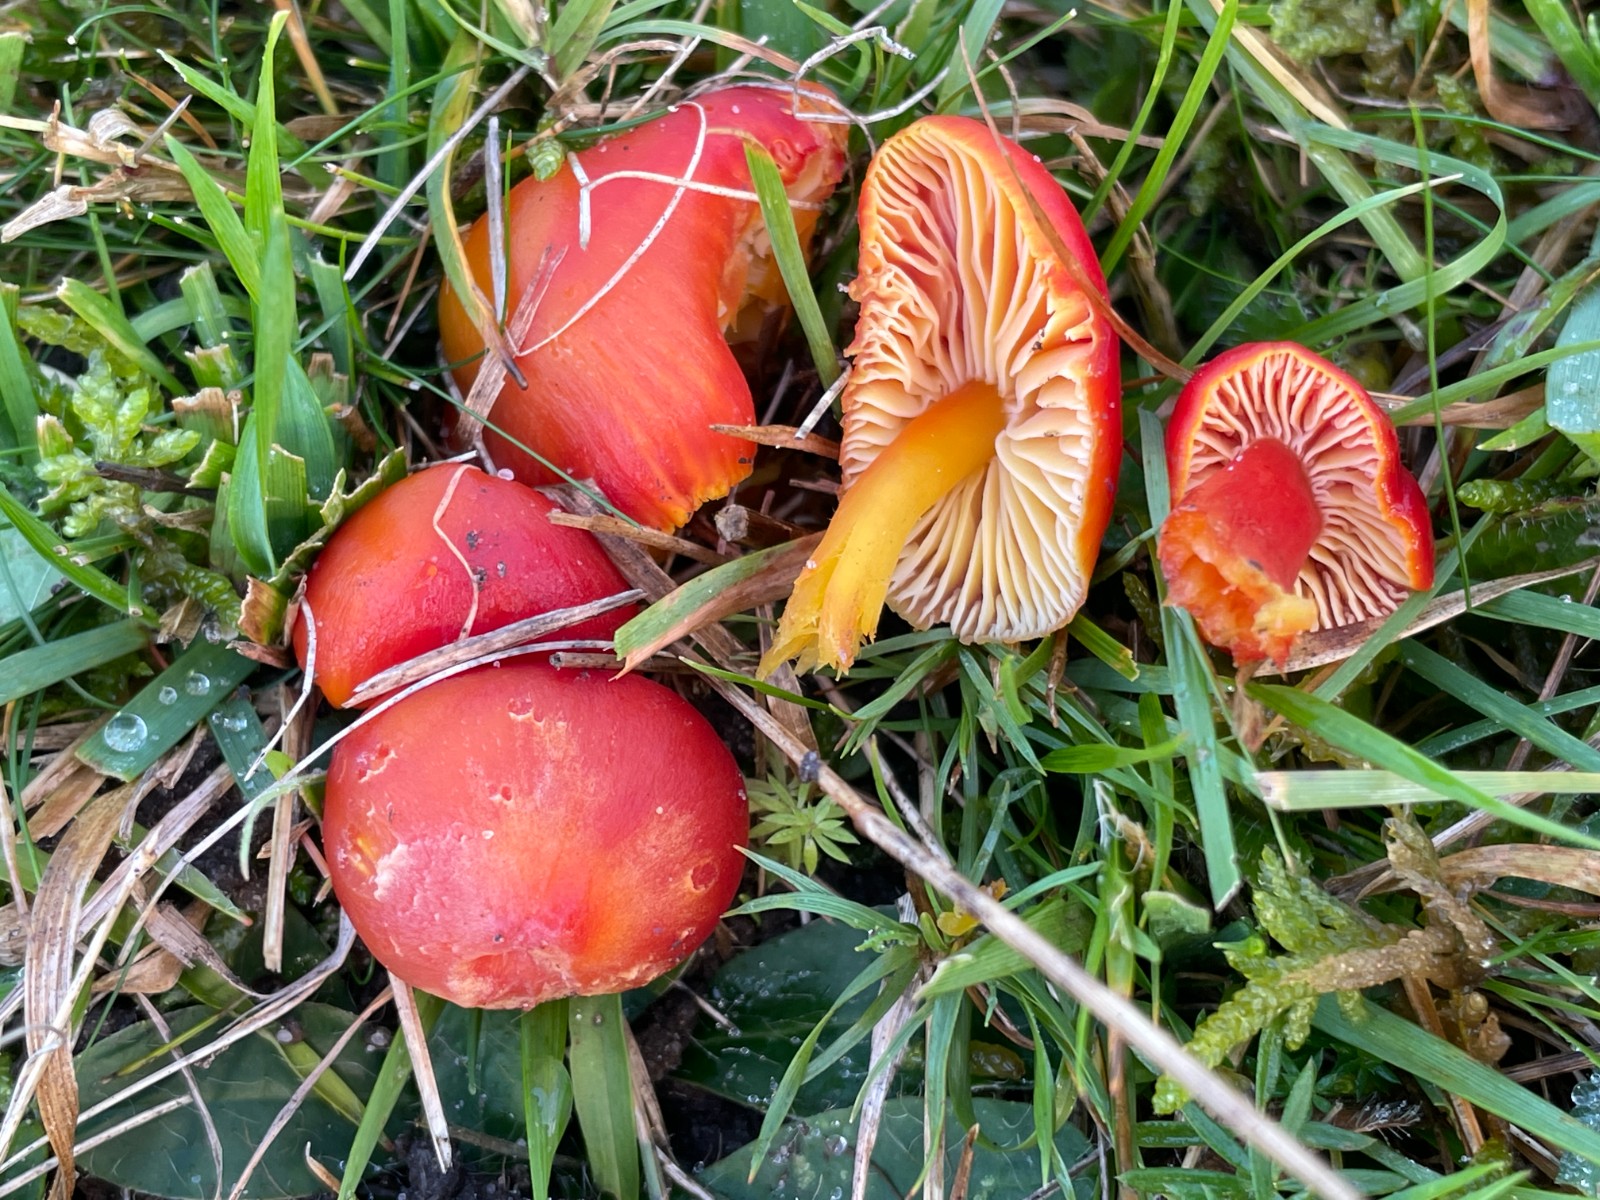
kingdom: Fungi
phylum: Basidiomycota
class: Agaricomycetes
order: Agaricales
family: Hygrophoraceae
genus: Hygrocybe
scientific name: Hygrocybe coccinea
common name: cinnober-vokshat
